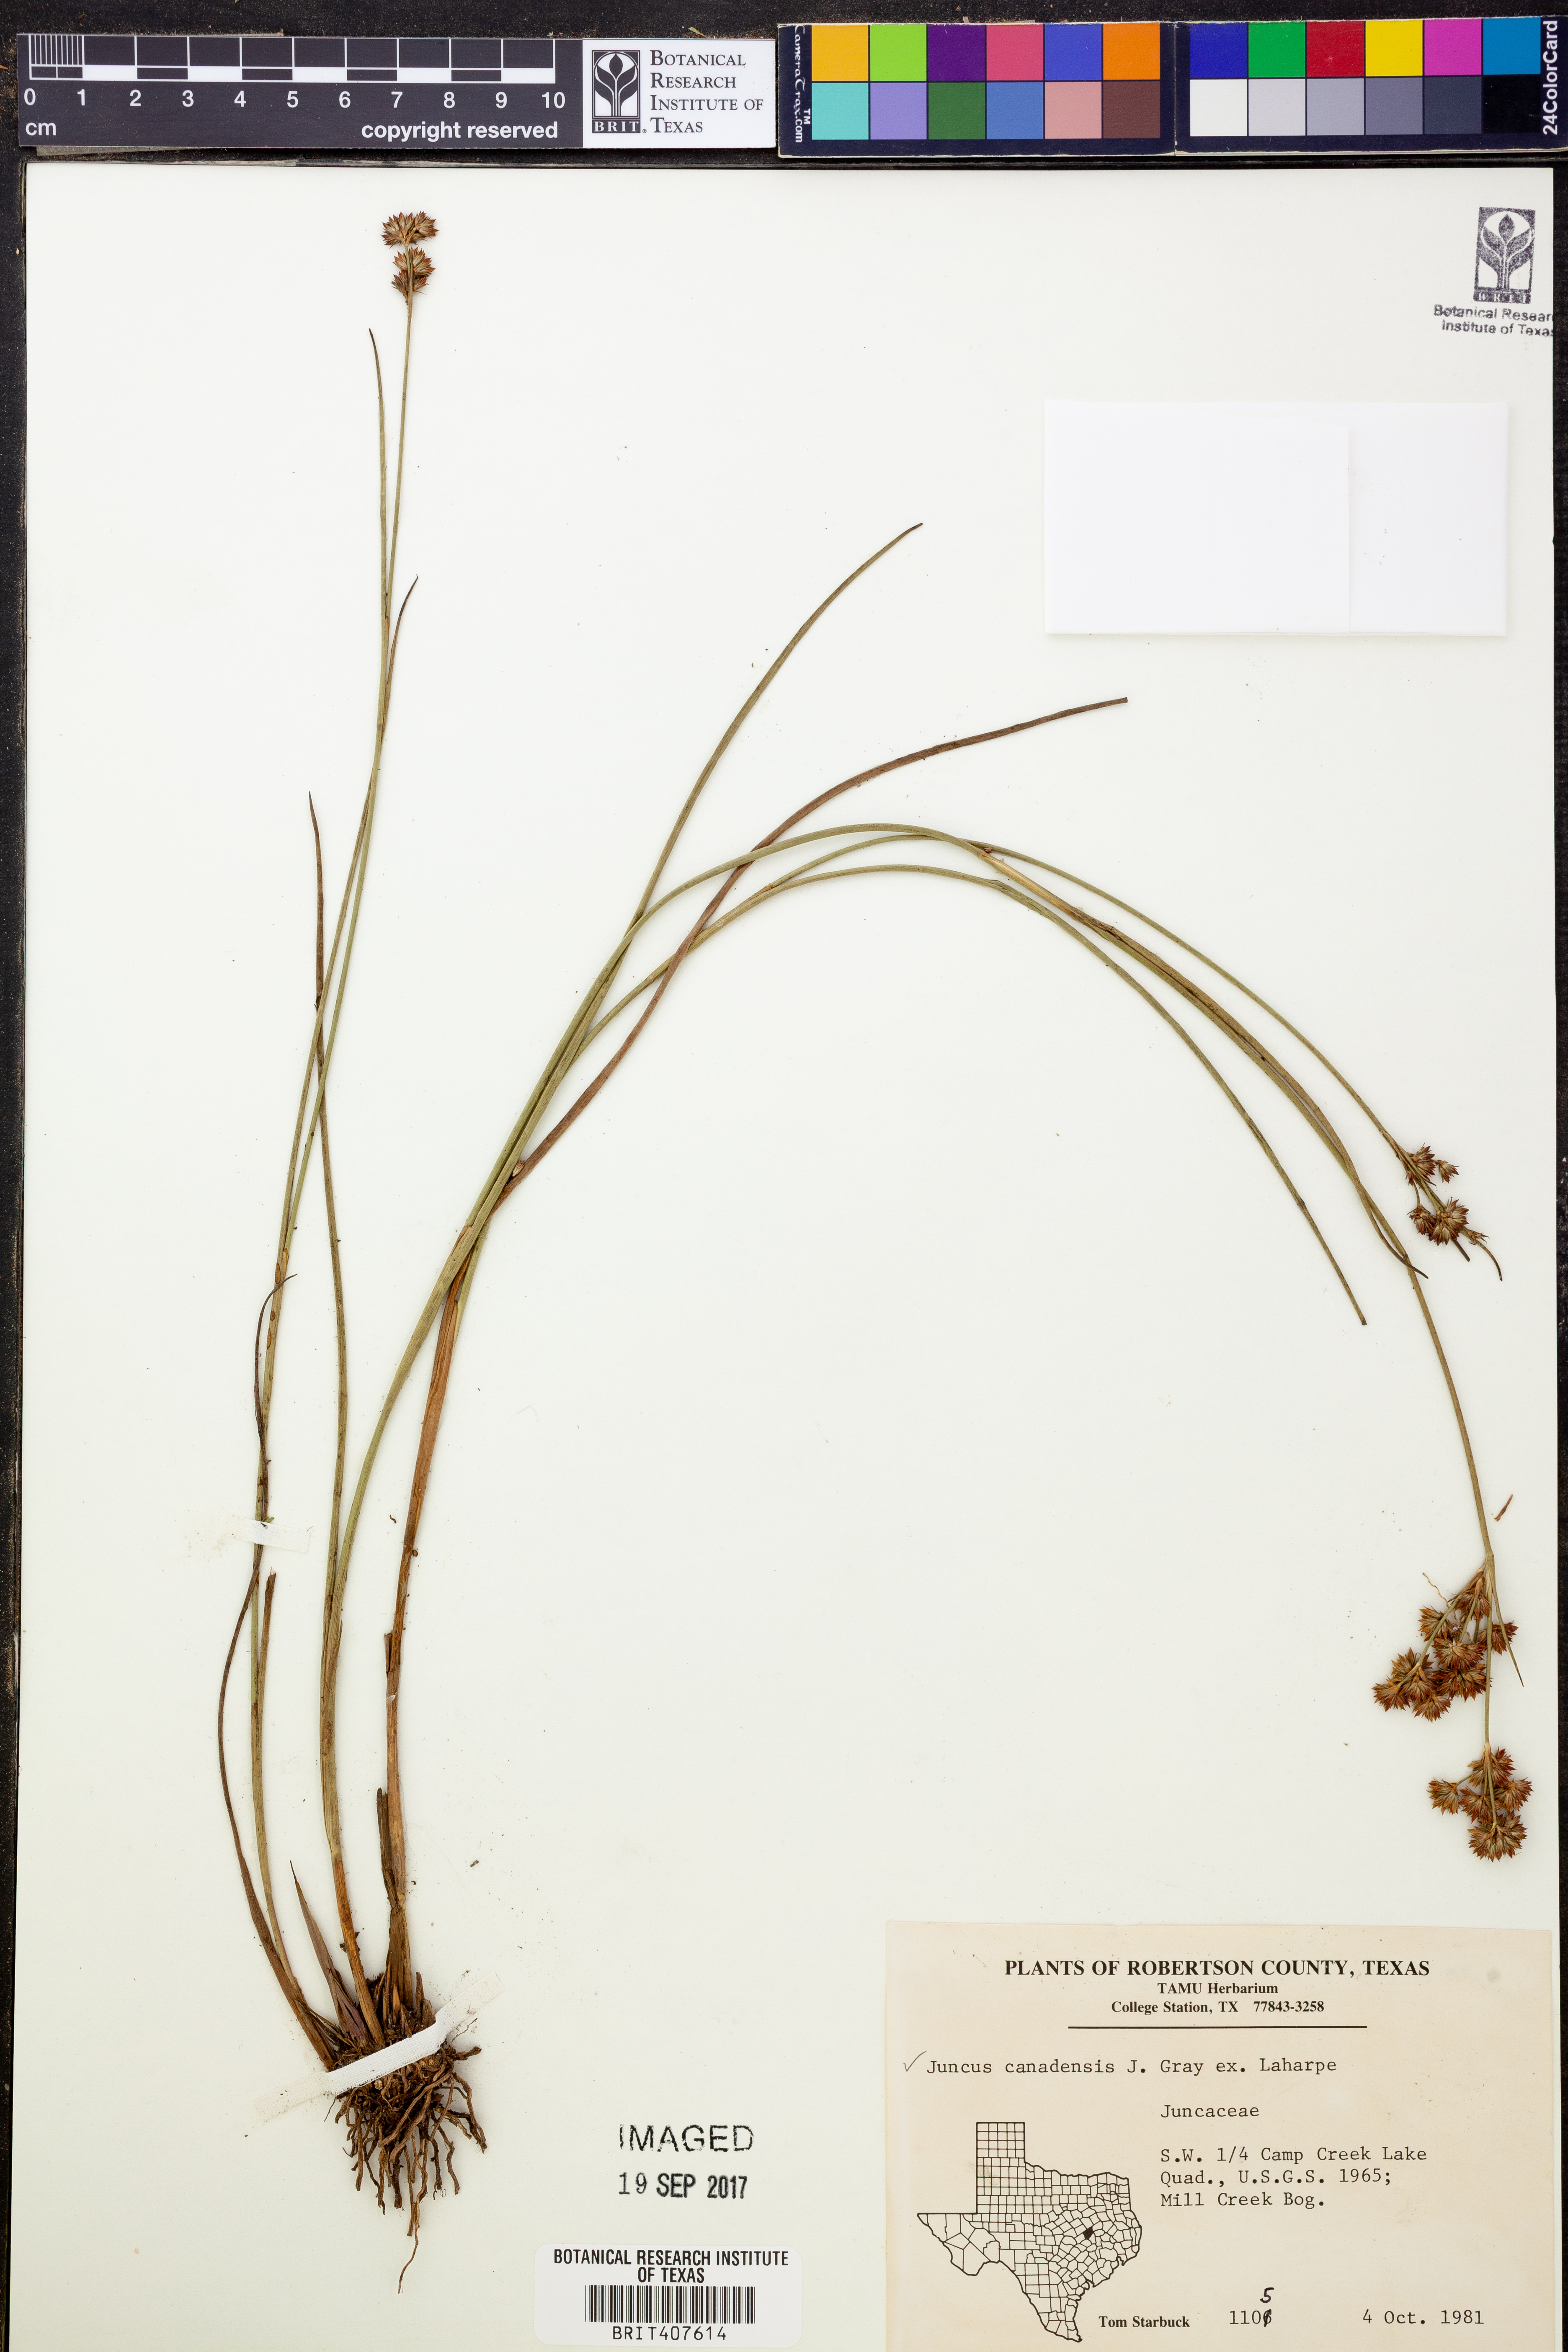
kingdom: Plantae
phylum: Tracheophyta
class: Liliopsida
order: Poales
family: Juncaceae
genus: Juncus
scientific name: Juncus canadensis
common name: Canada rush
